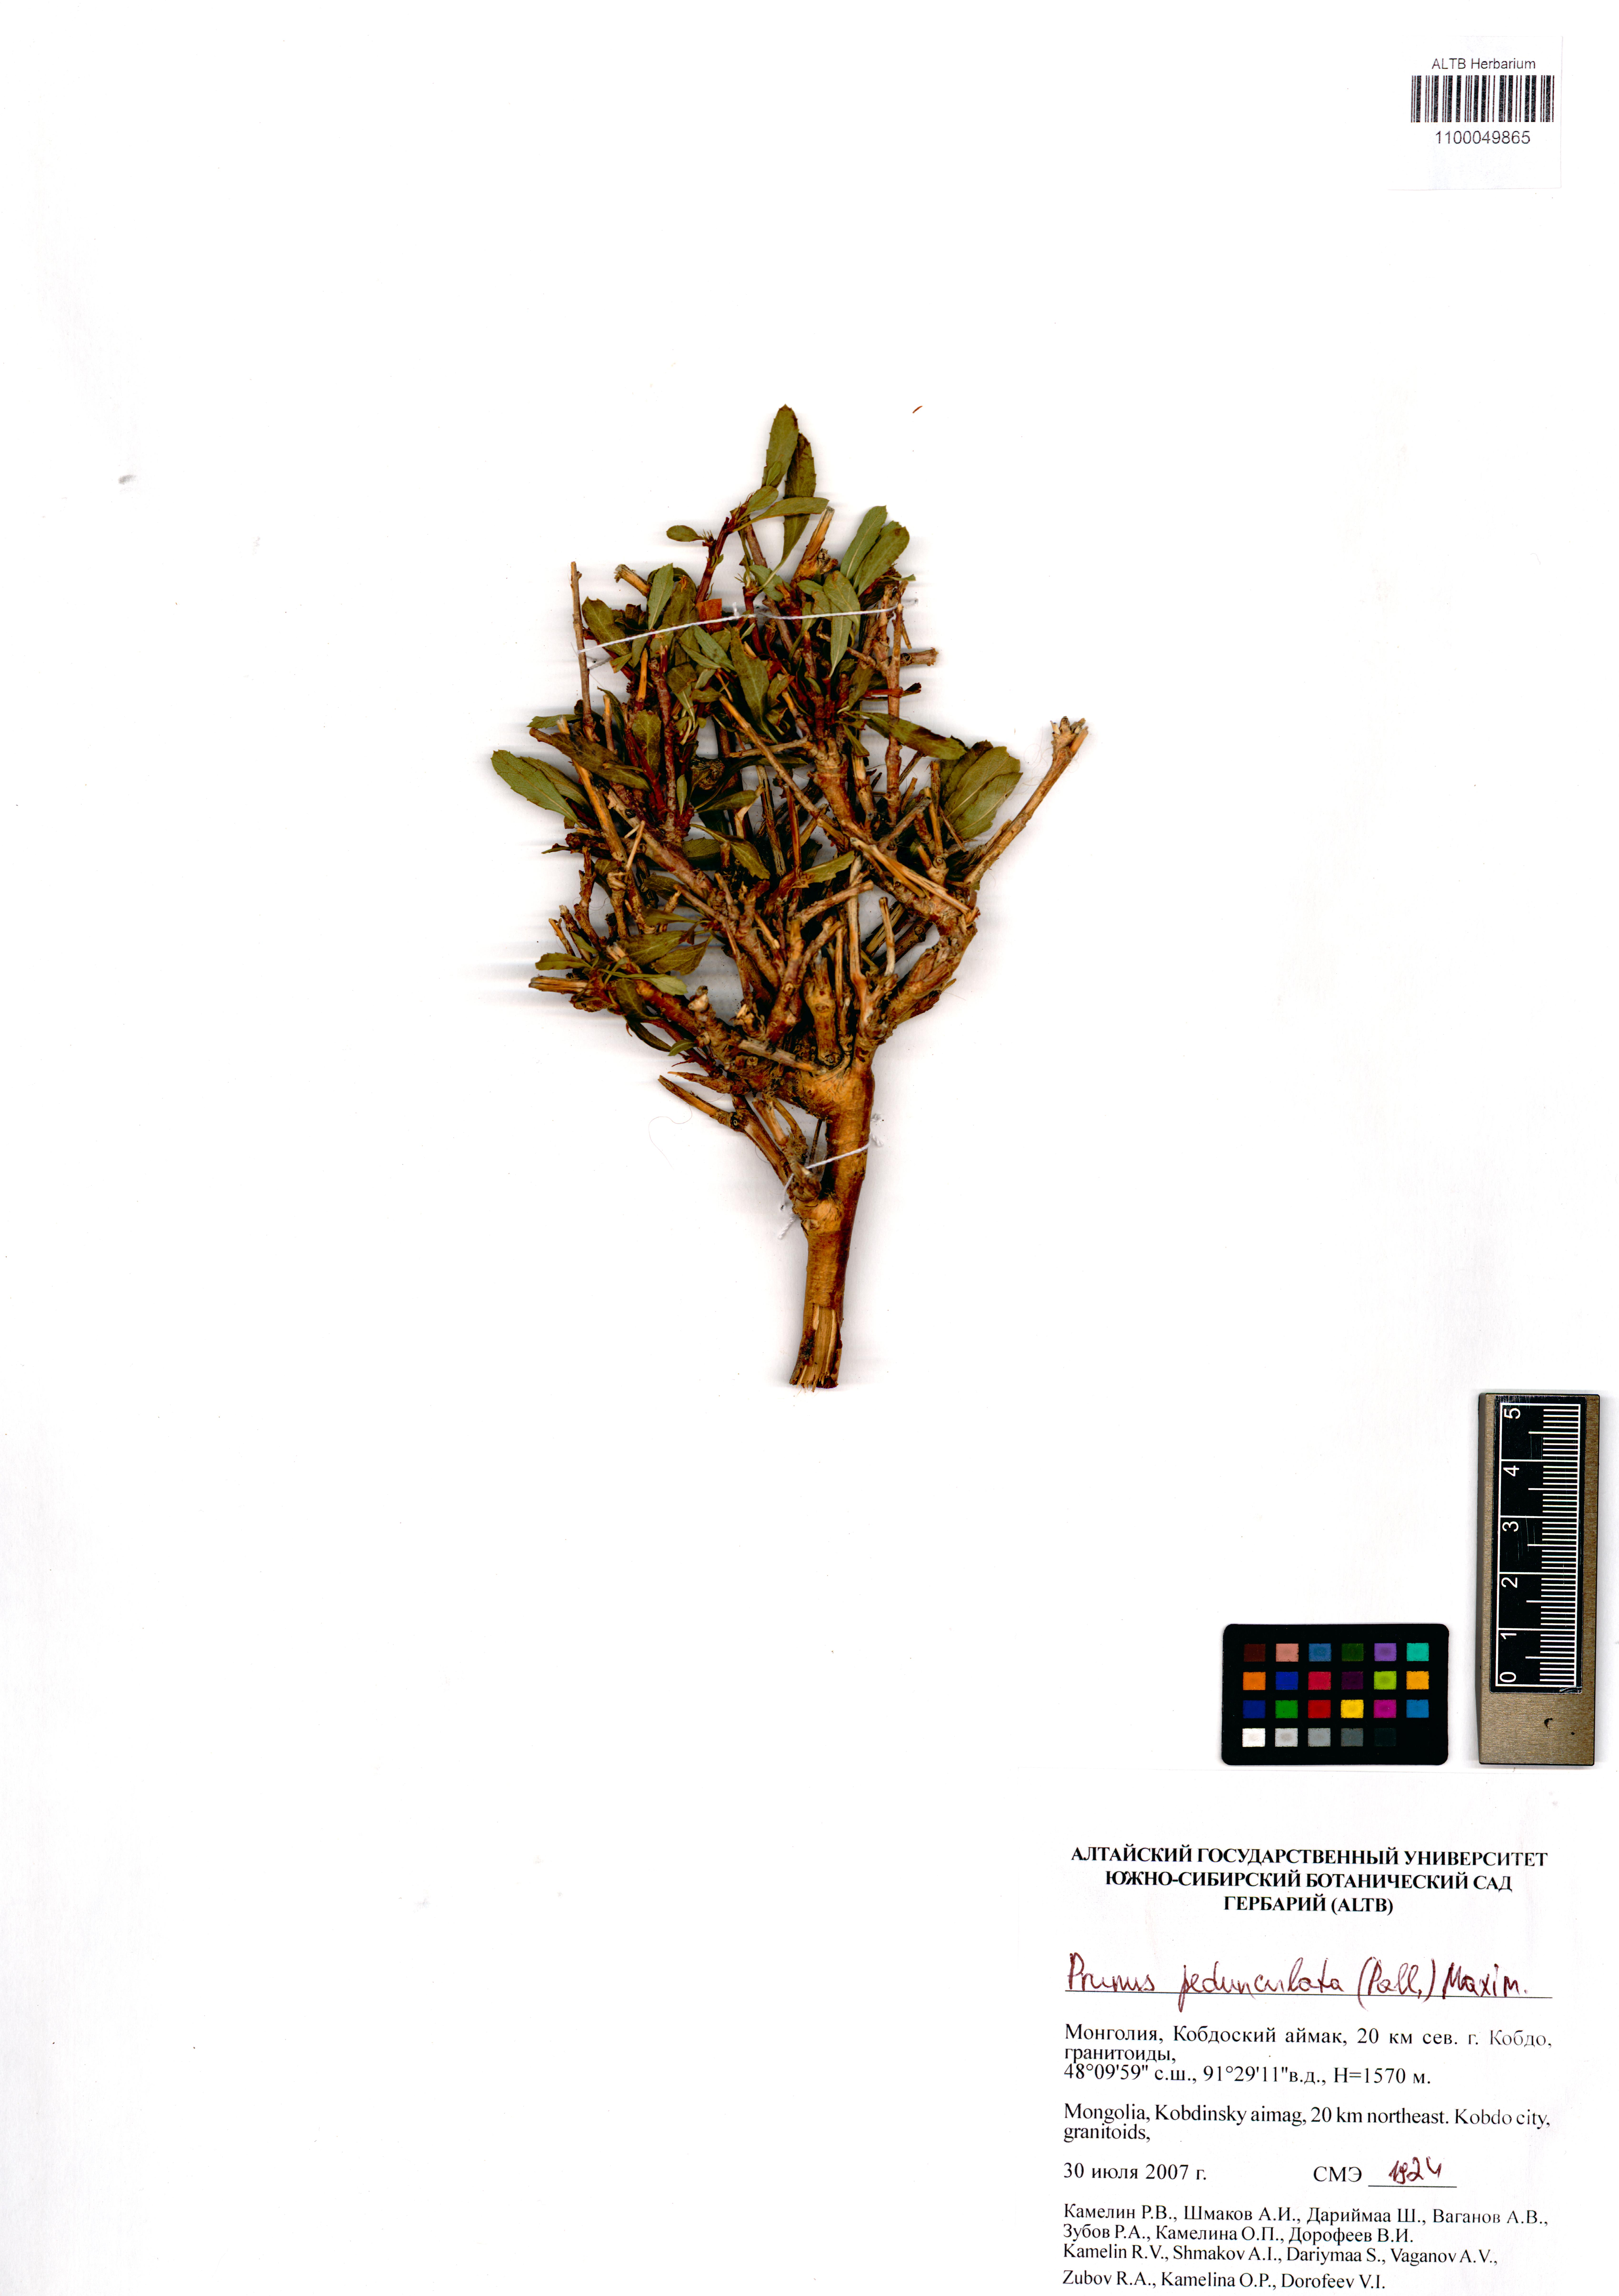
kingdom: Plantae
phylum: Tracheophyta
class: Magnoliopsida
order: Rosales
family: Rosaceae
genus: Prunus
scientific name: Prunus pedunculata
